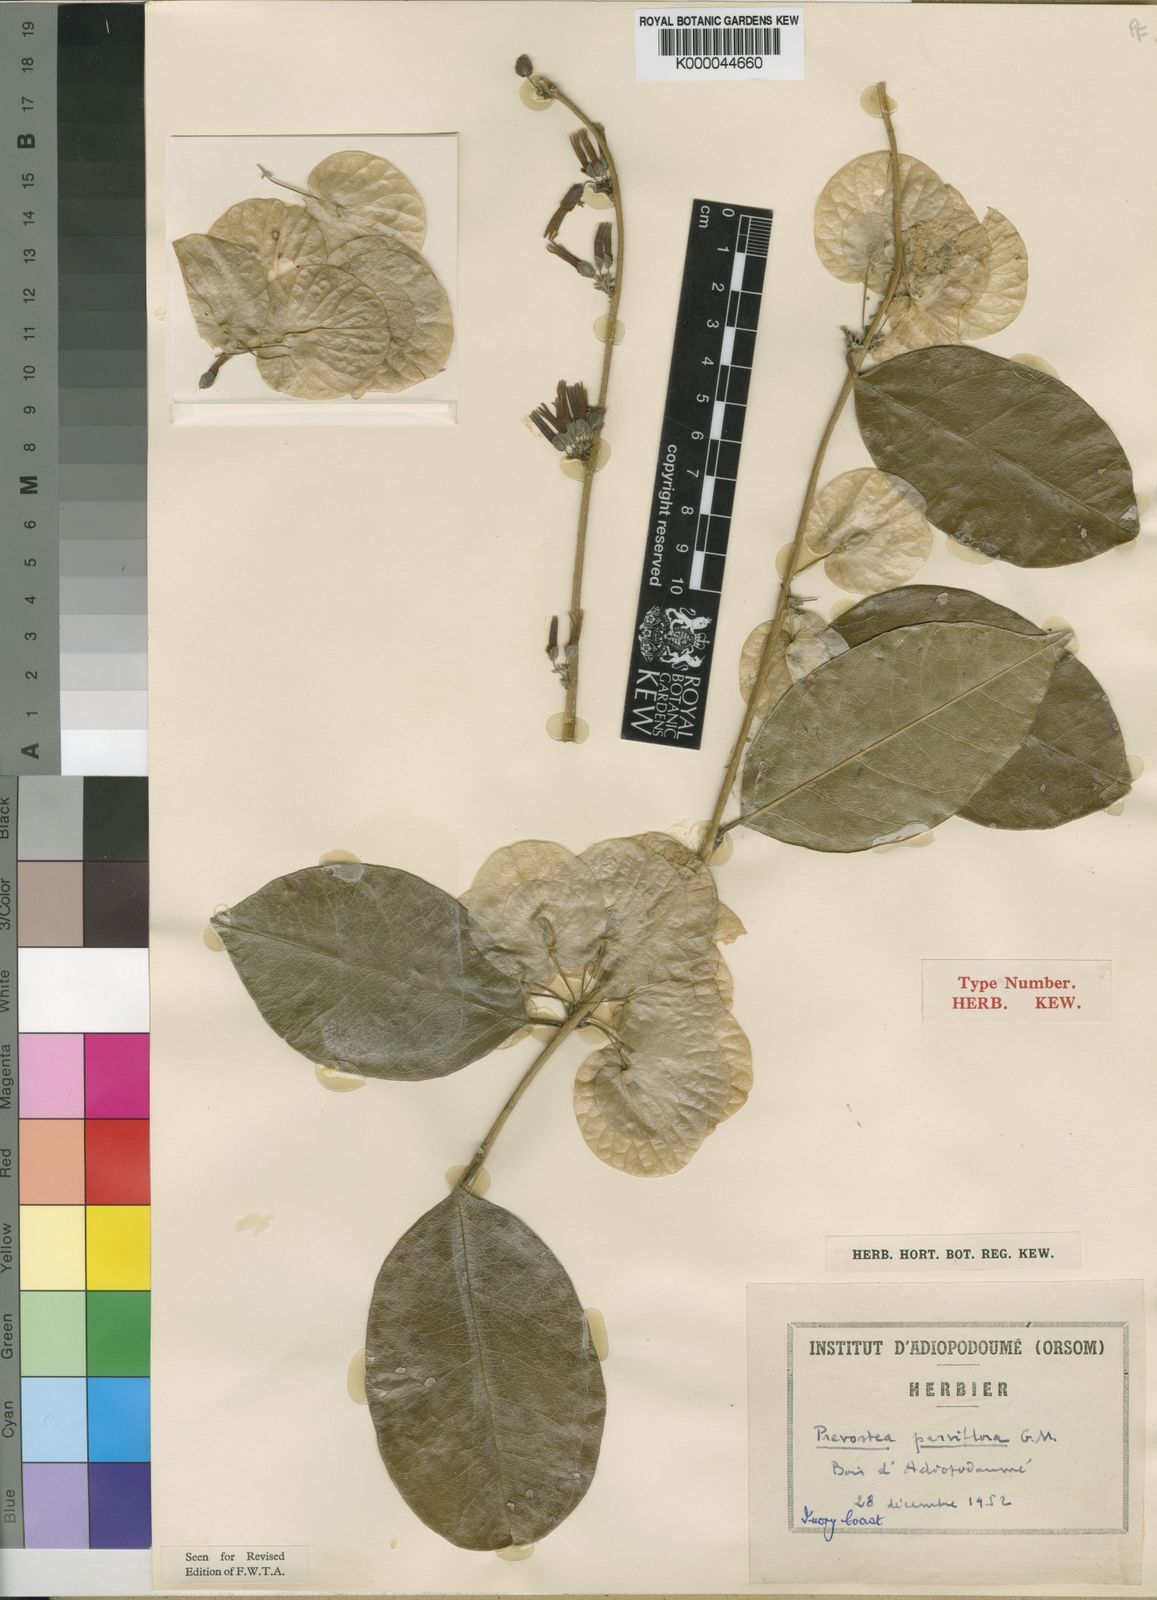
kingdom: Plantae
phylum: Tracheophyta
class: Magnoliopsida
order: Solanales
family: Convolvulaceae
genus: Calycobolus
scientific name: Calycobolus parviflorus
